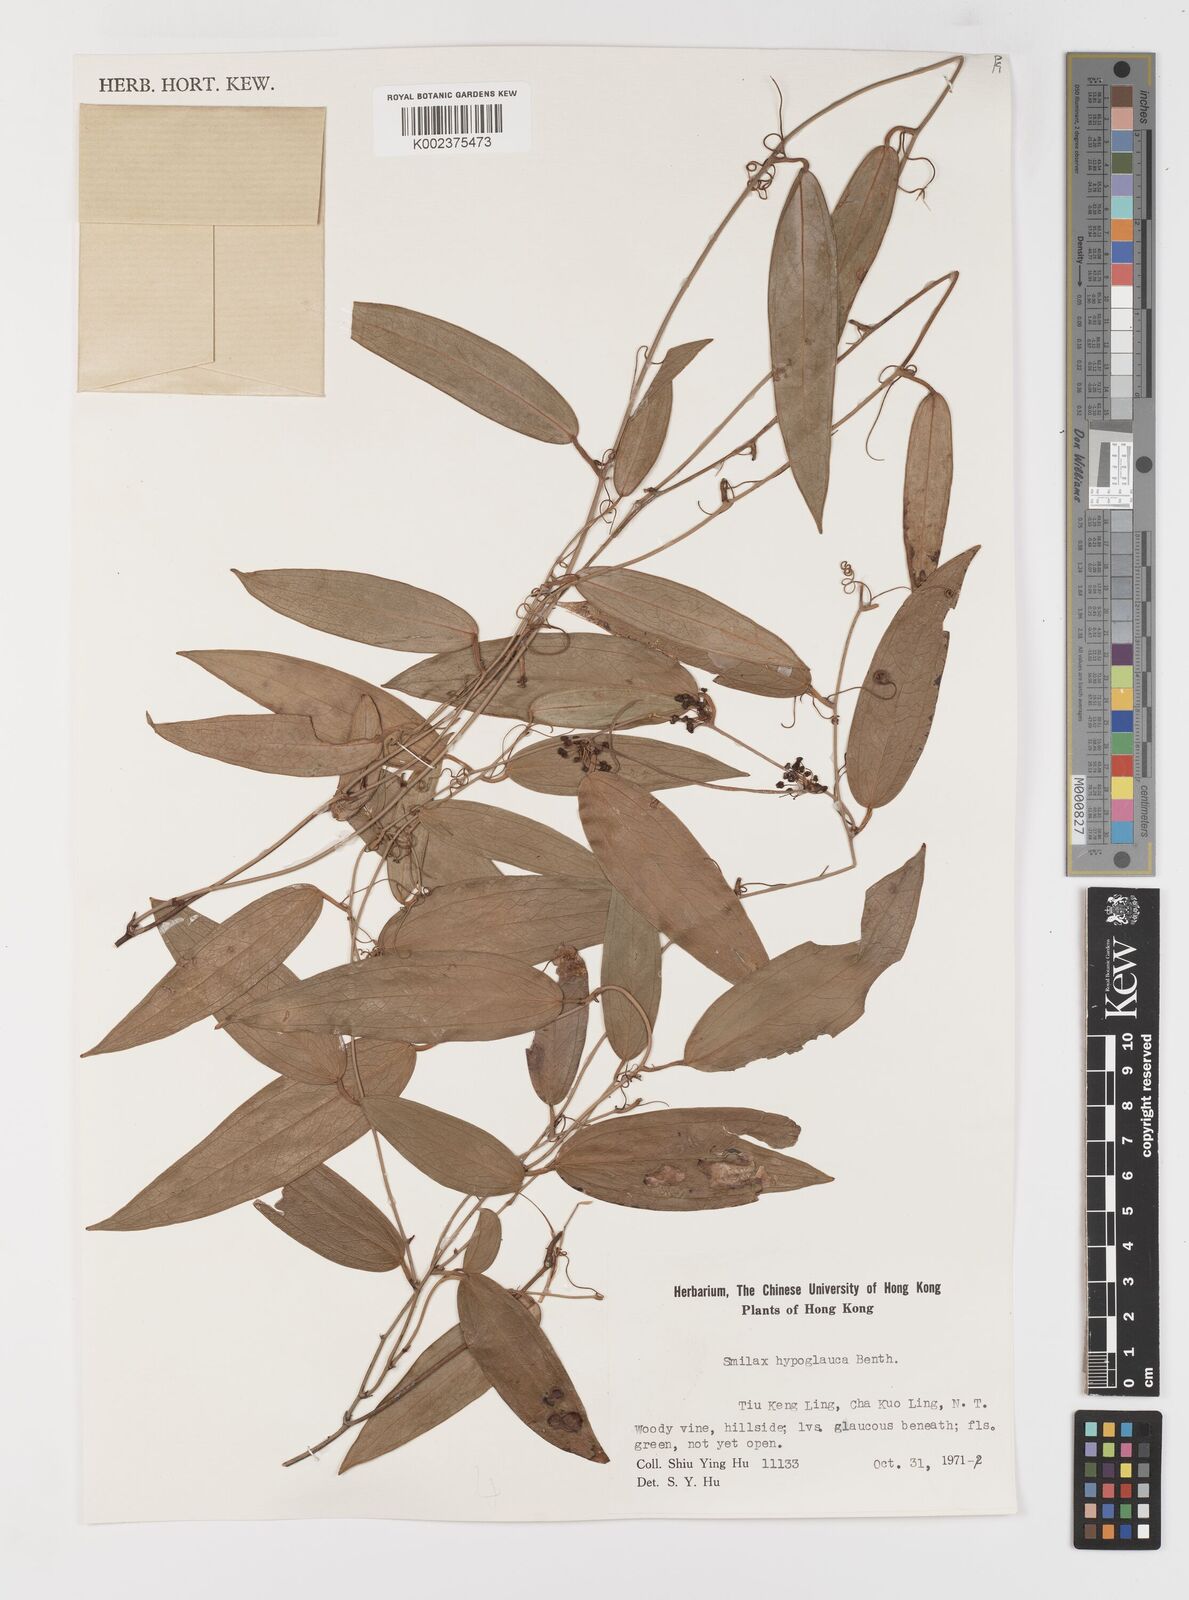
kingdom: Plantae
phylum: Tracheophyta
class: Liliopsida
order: Liliales
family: Smilacaceae
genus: Smilax
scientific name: Smilax hypoglauca
